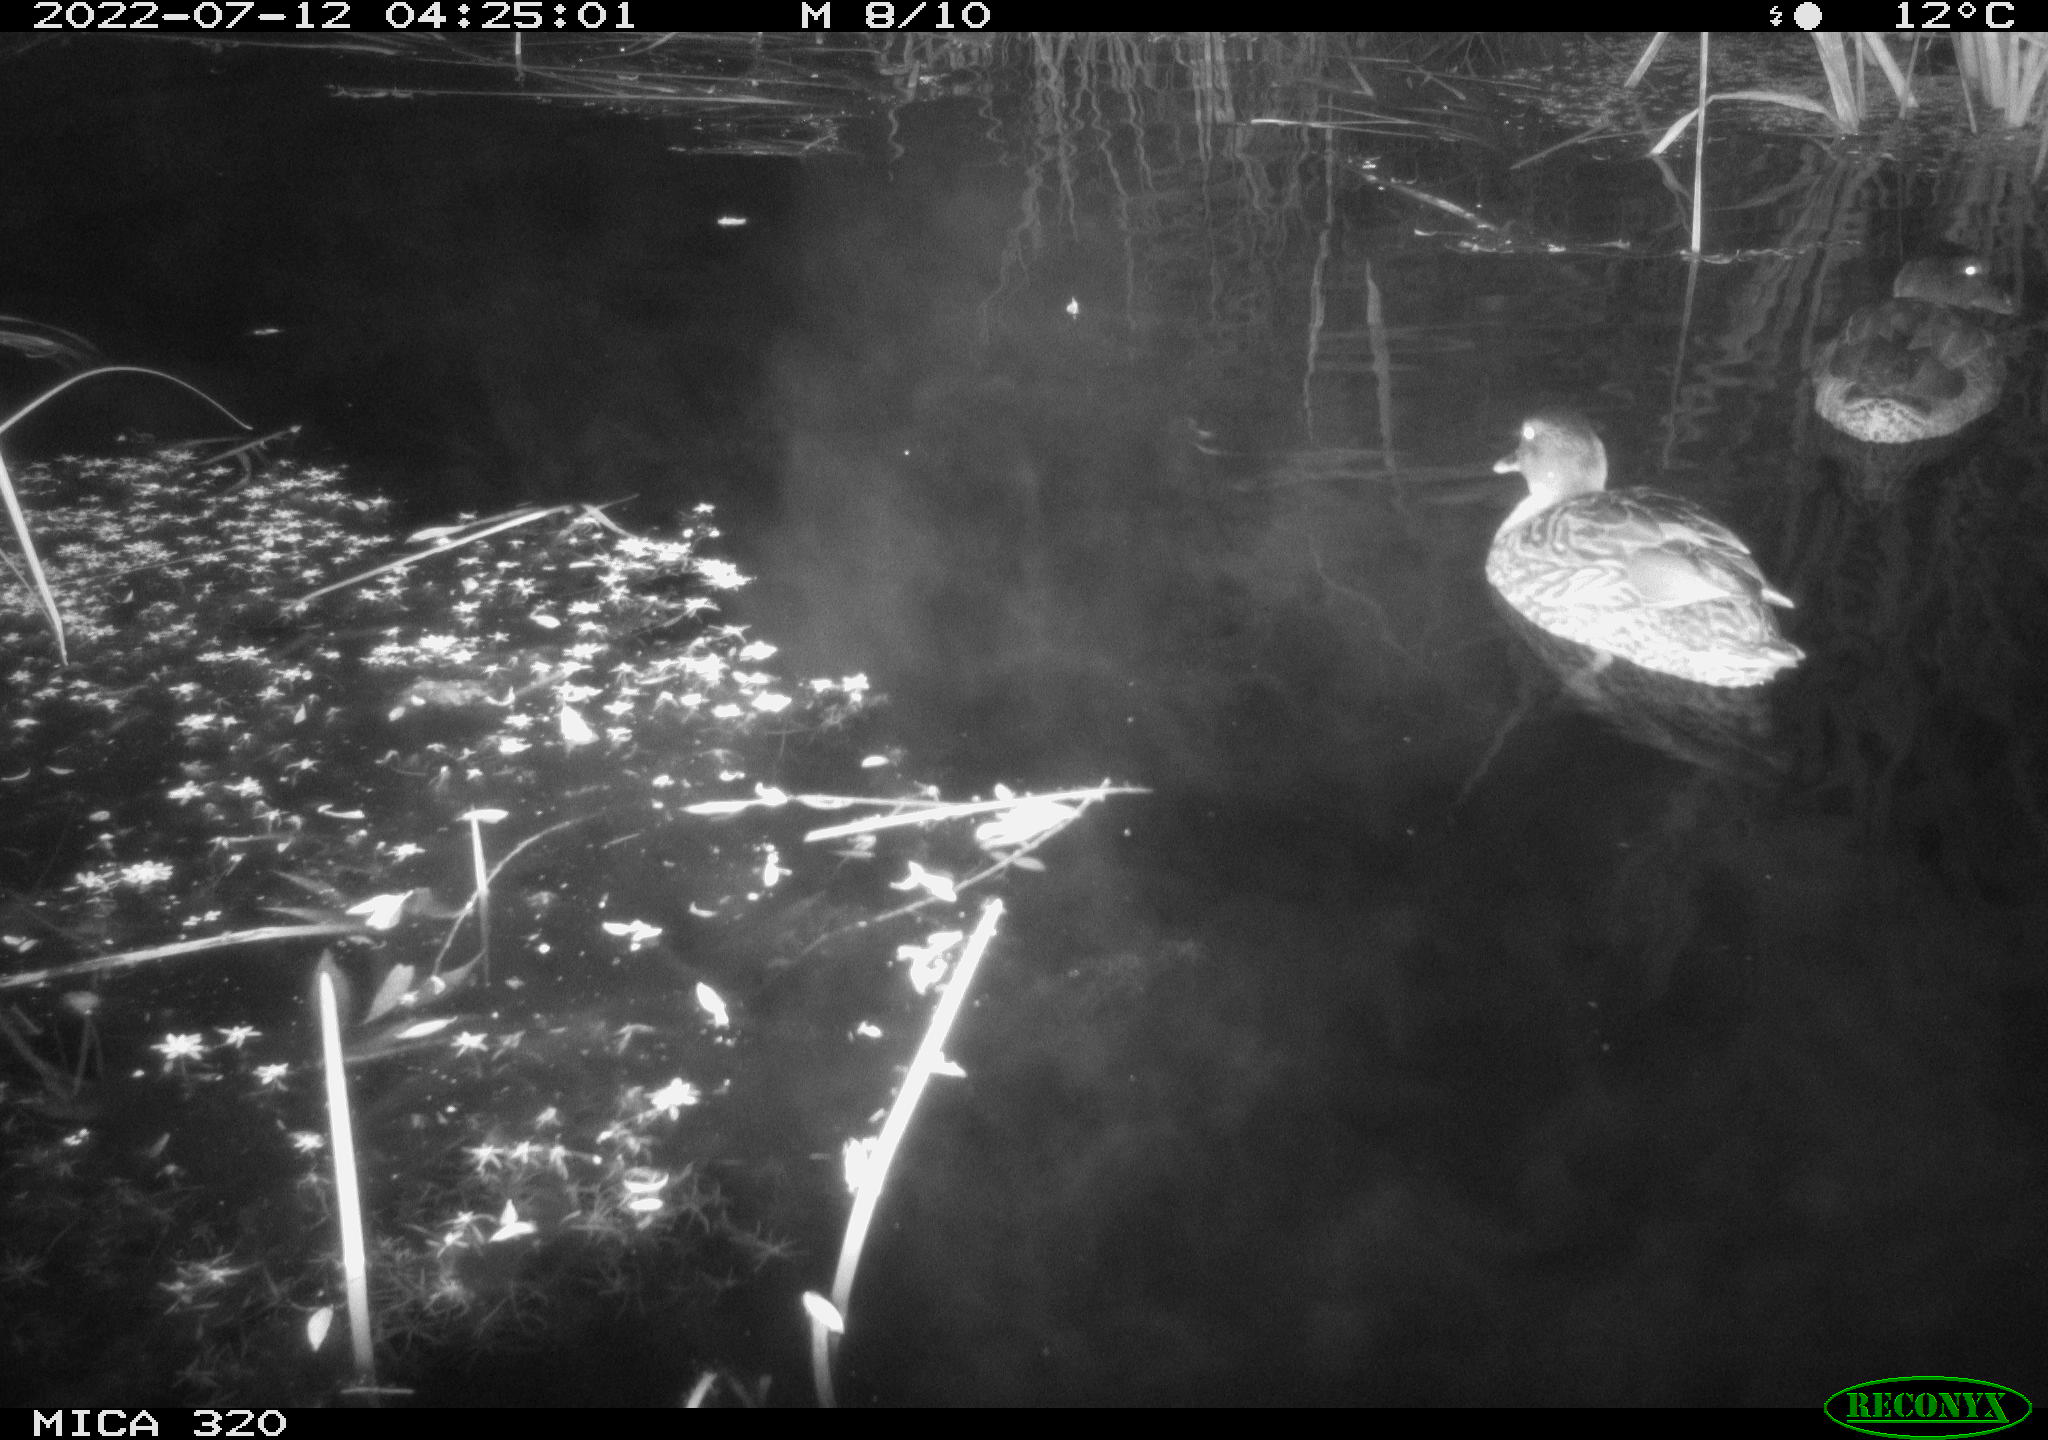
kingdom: Animalia
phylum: Chordata
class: Aves
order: Anseriformes
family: Anatidae
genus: Anas
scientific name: Anas platyrhynchos
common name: Mallard
